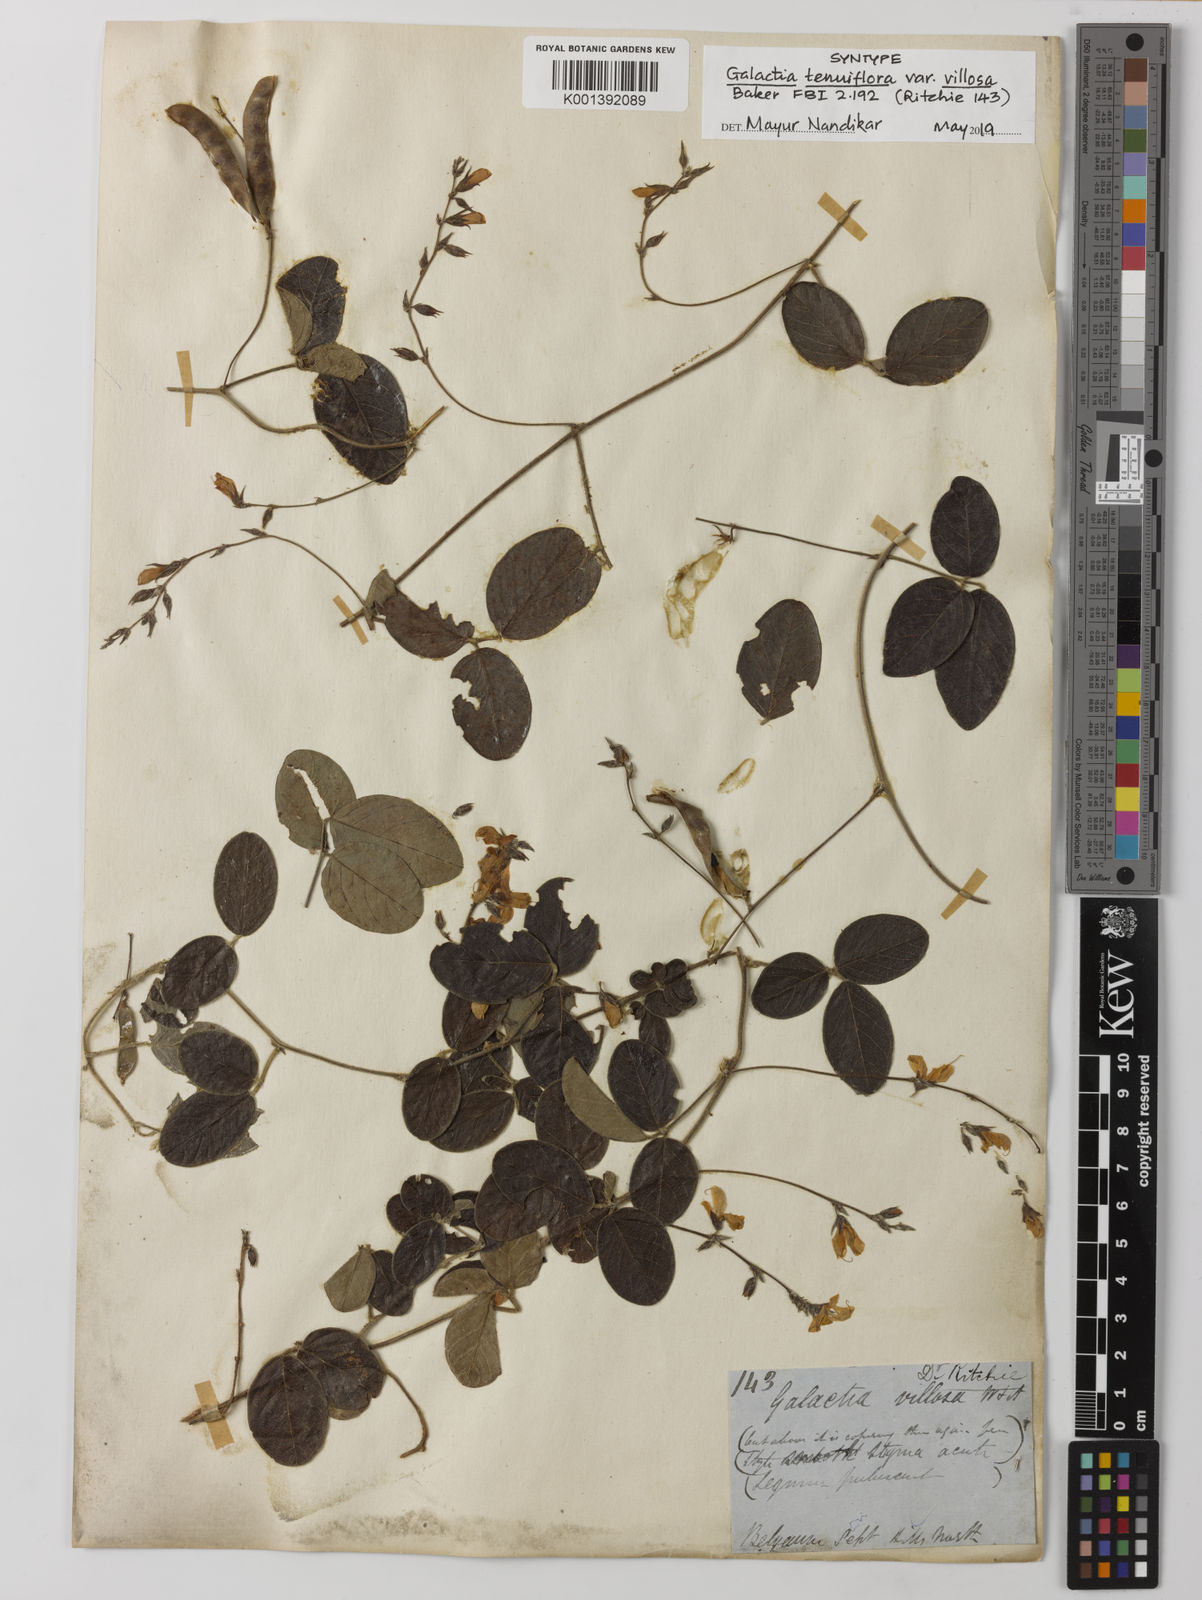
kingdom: Plantae
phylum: Tracheophyta
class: Magnoliopsida
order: Fabales
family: Fabaceae
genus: Galactia
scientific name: Galactia
